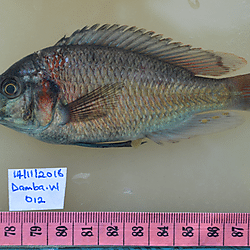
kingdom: Animalia
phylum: Chordata
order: Perciformes
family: Cichlidae
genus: Neochromis
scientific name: Neochromis
